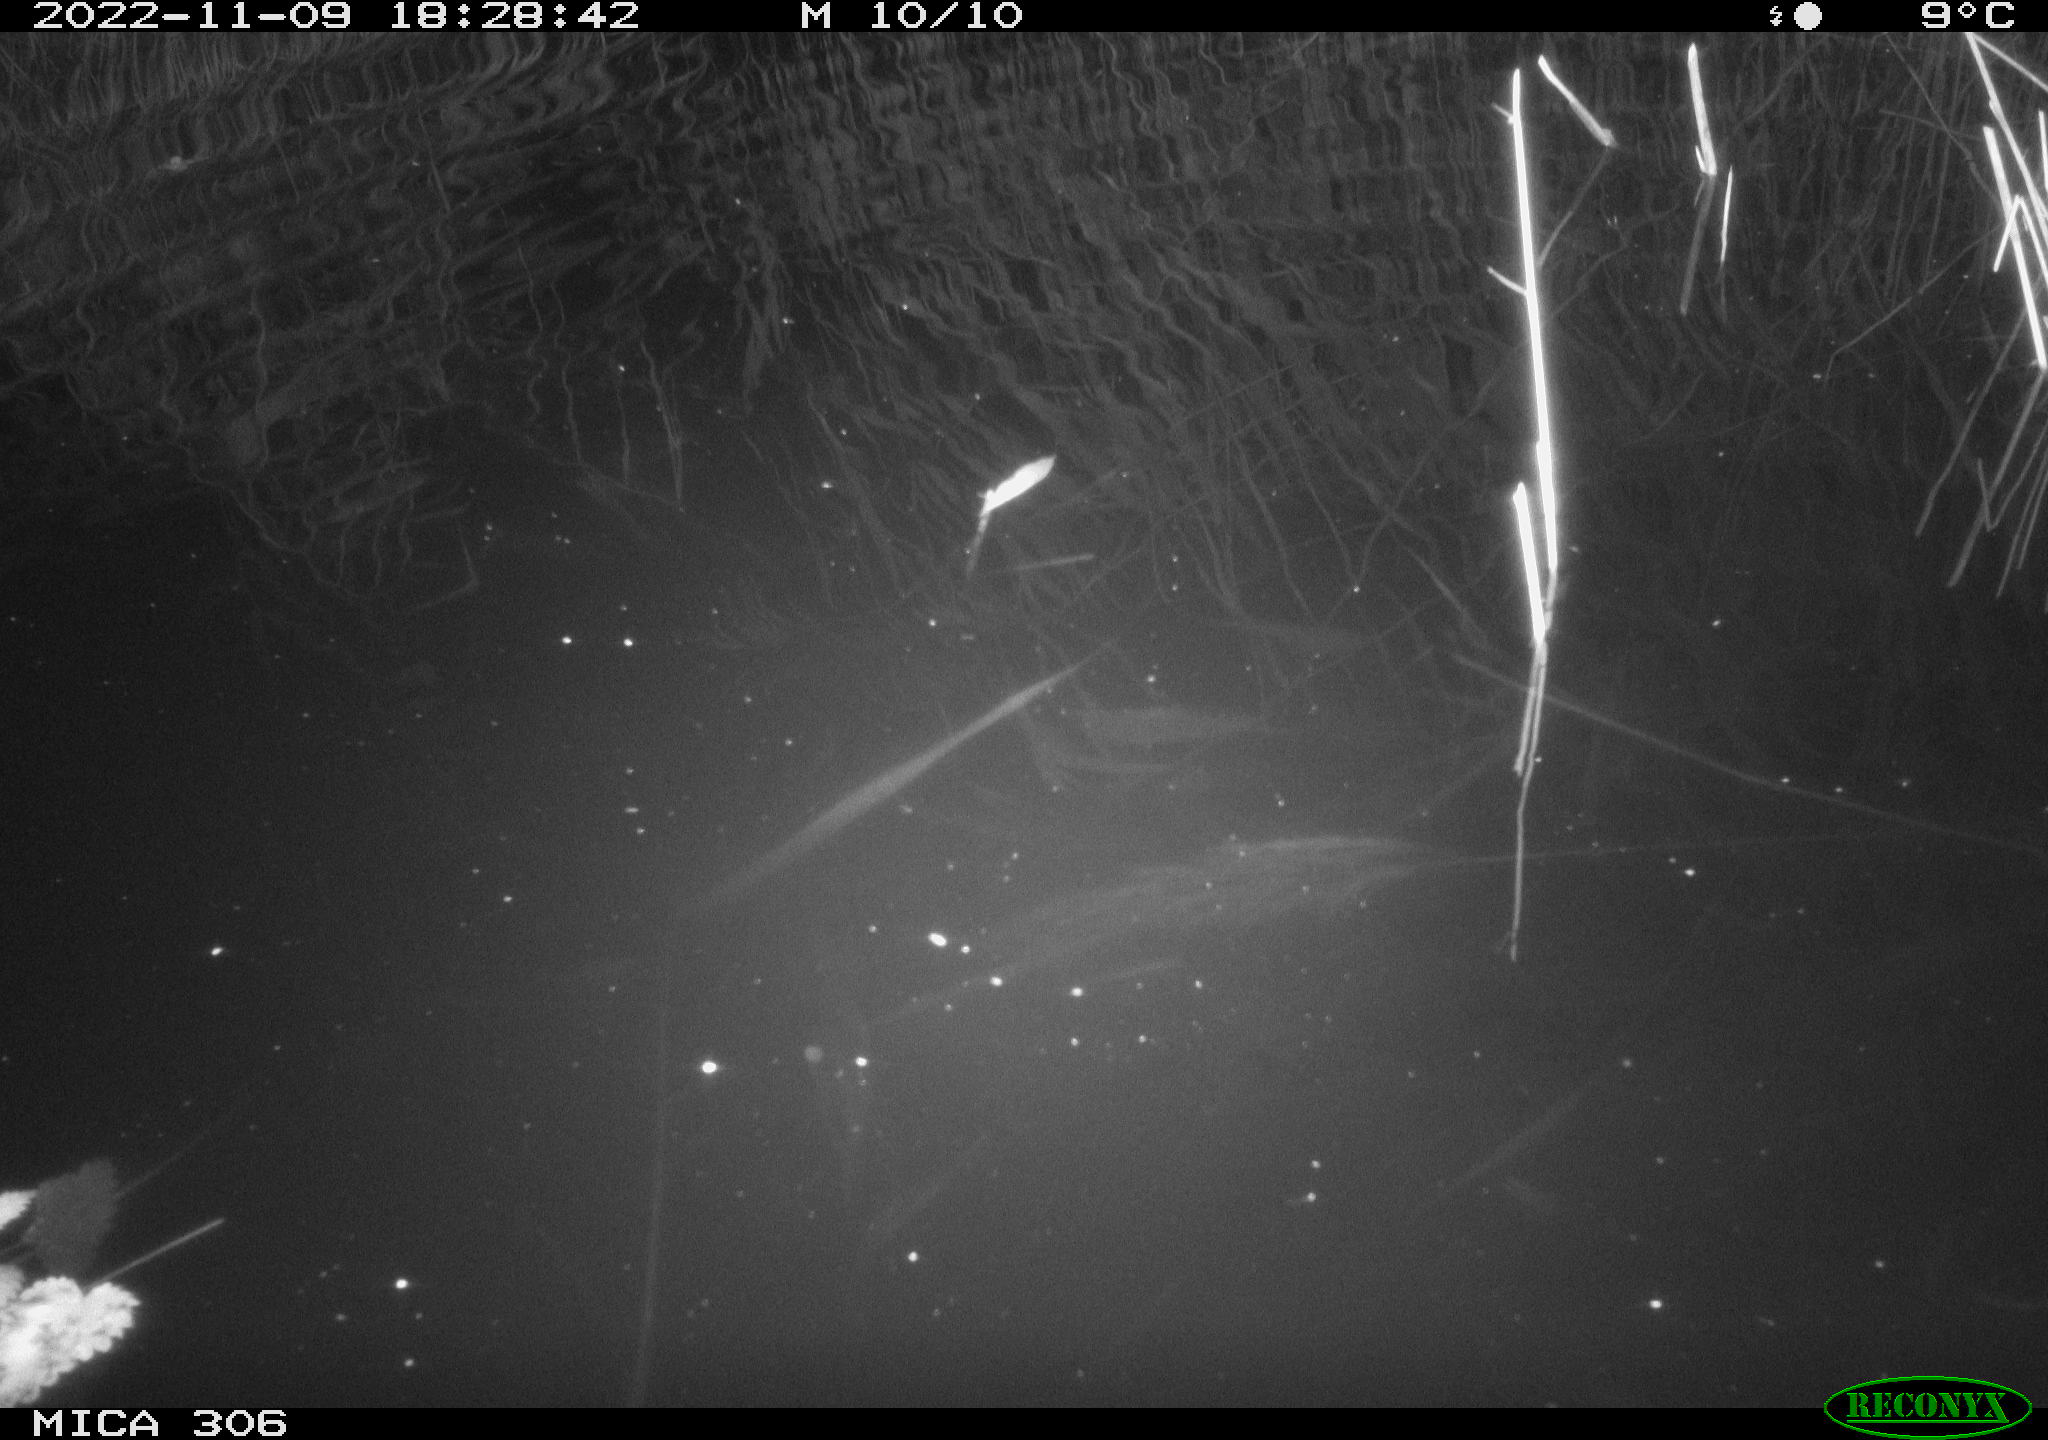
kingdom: Animalia
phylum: Chordata
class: Mammalia
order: Rodentia
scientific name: Rodentia
